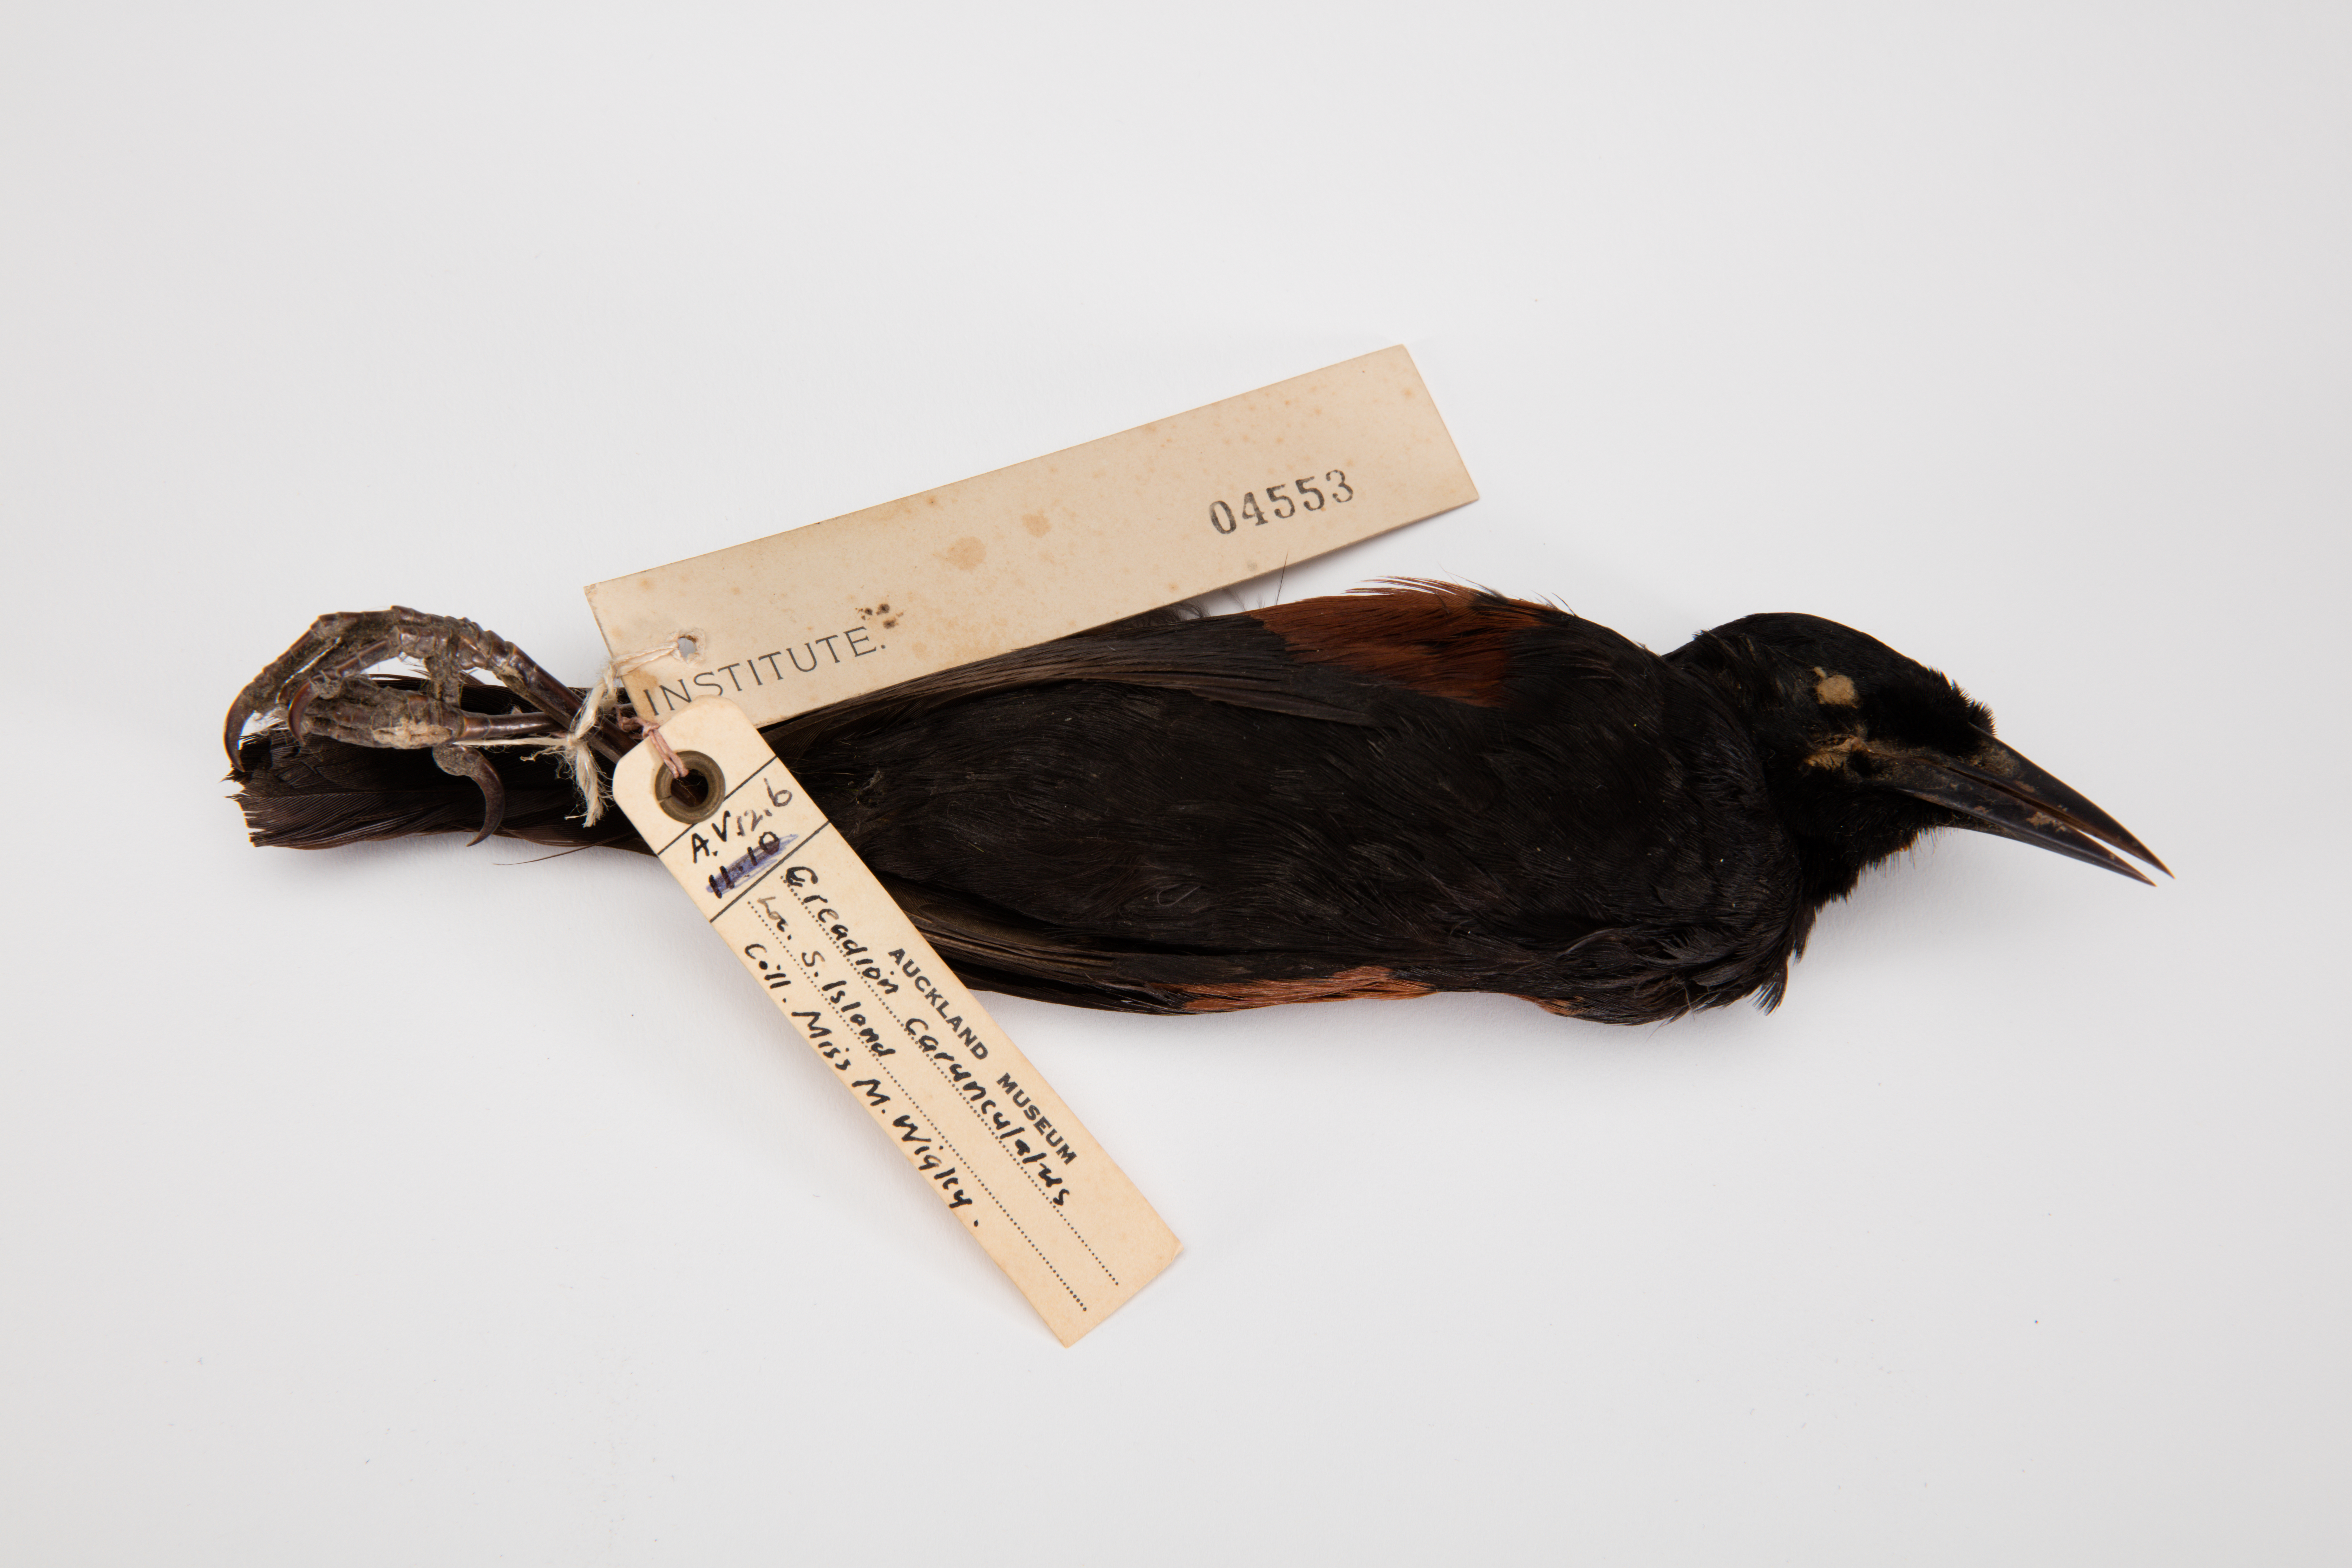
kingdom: Animalia
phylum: Chordata
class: Aves
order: Passeriformes
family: Callaeatidae
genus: Philesturnus
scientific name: Philesturnus carunculatus
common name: South island saddleback
